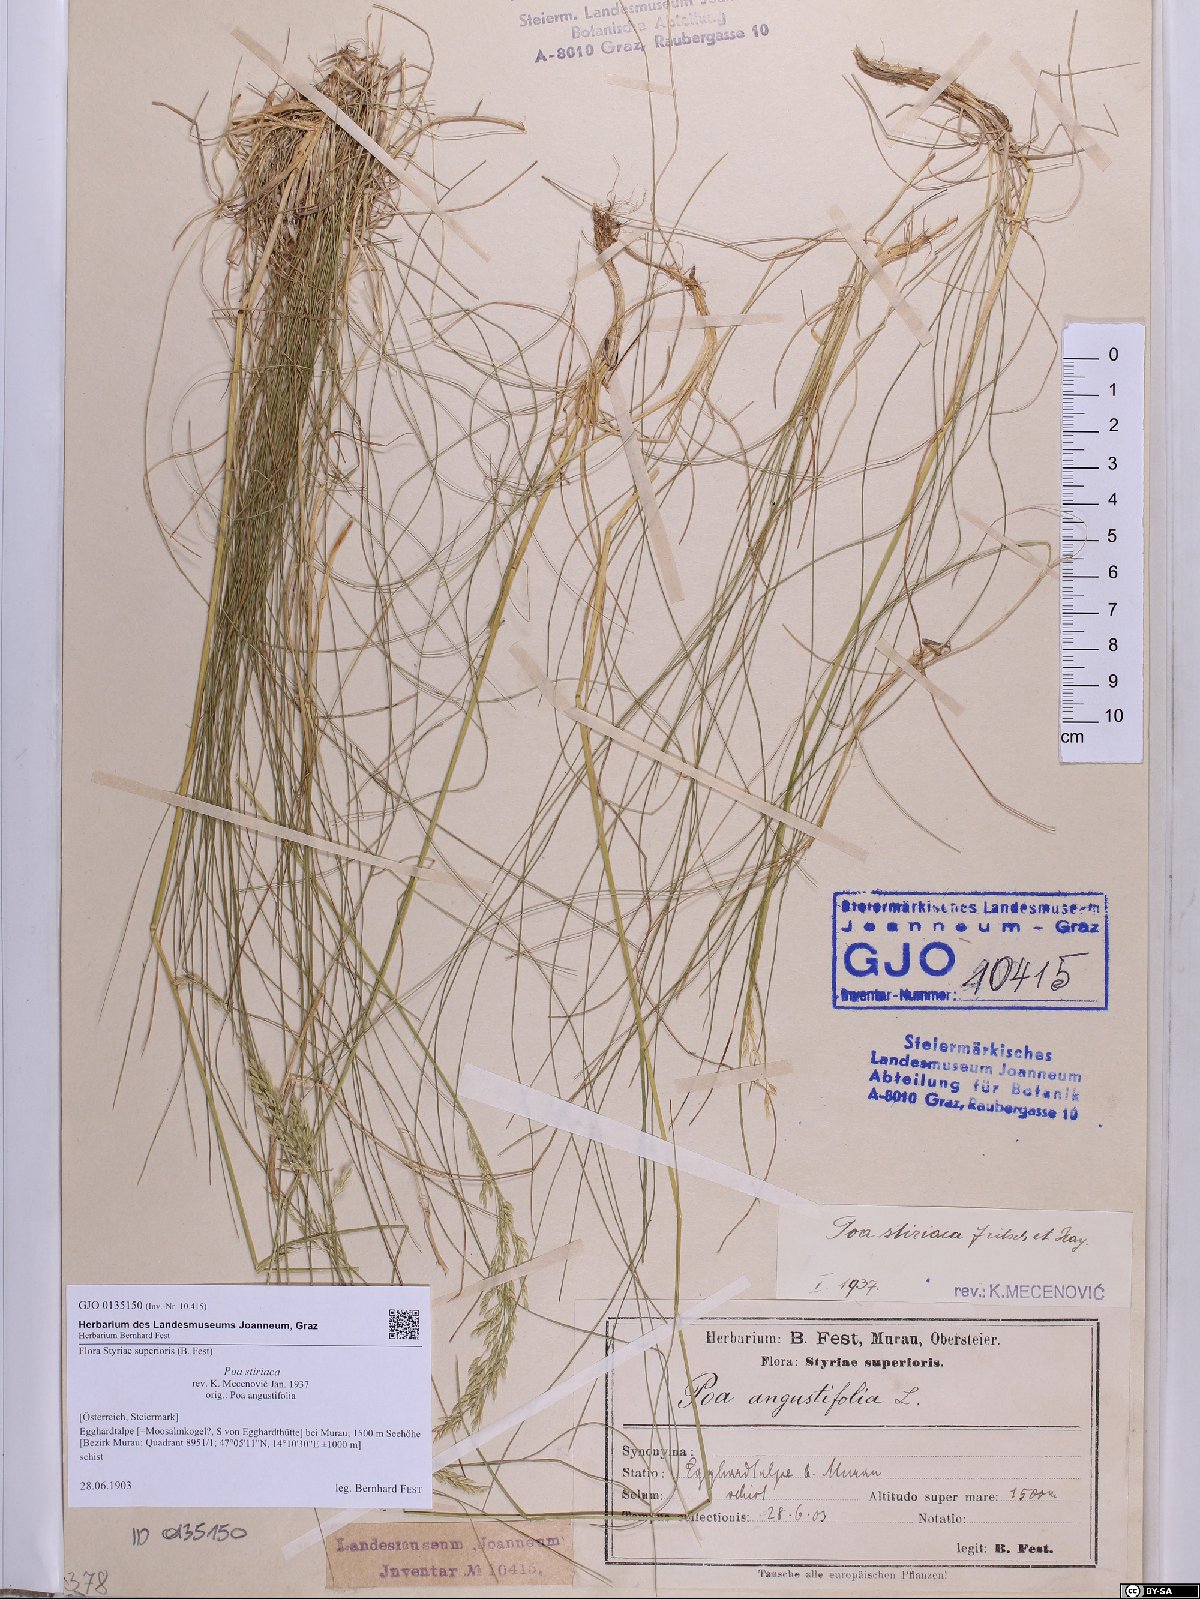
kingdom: Plantae
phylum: Tracheophyta
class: Liliopsida
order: Poales
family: Poaceae
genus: Poa
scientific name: Poa stiriaca
